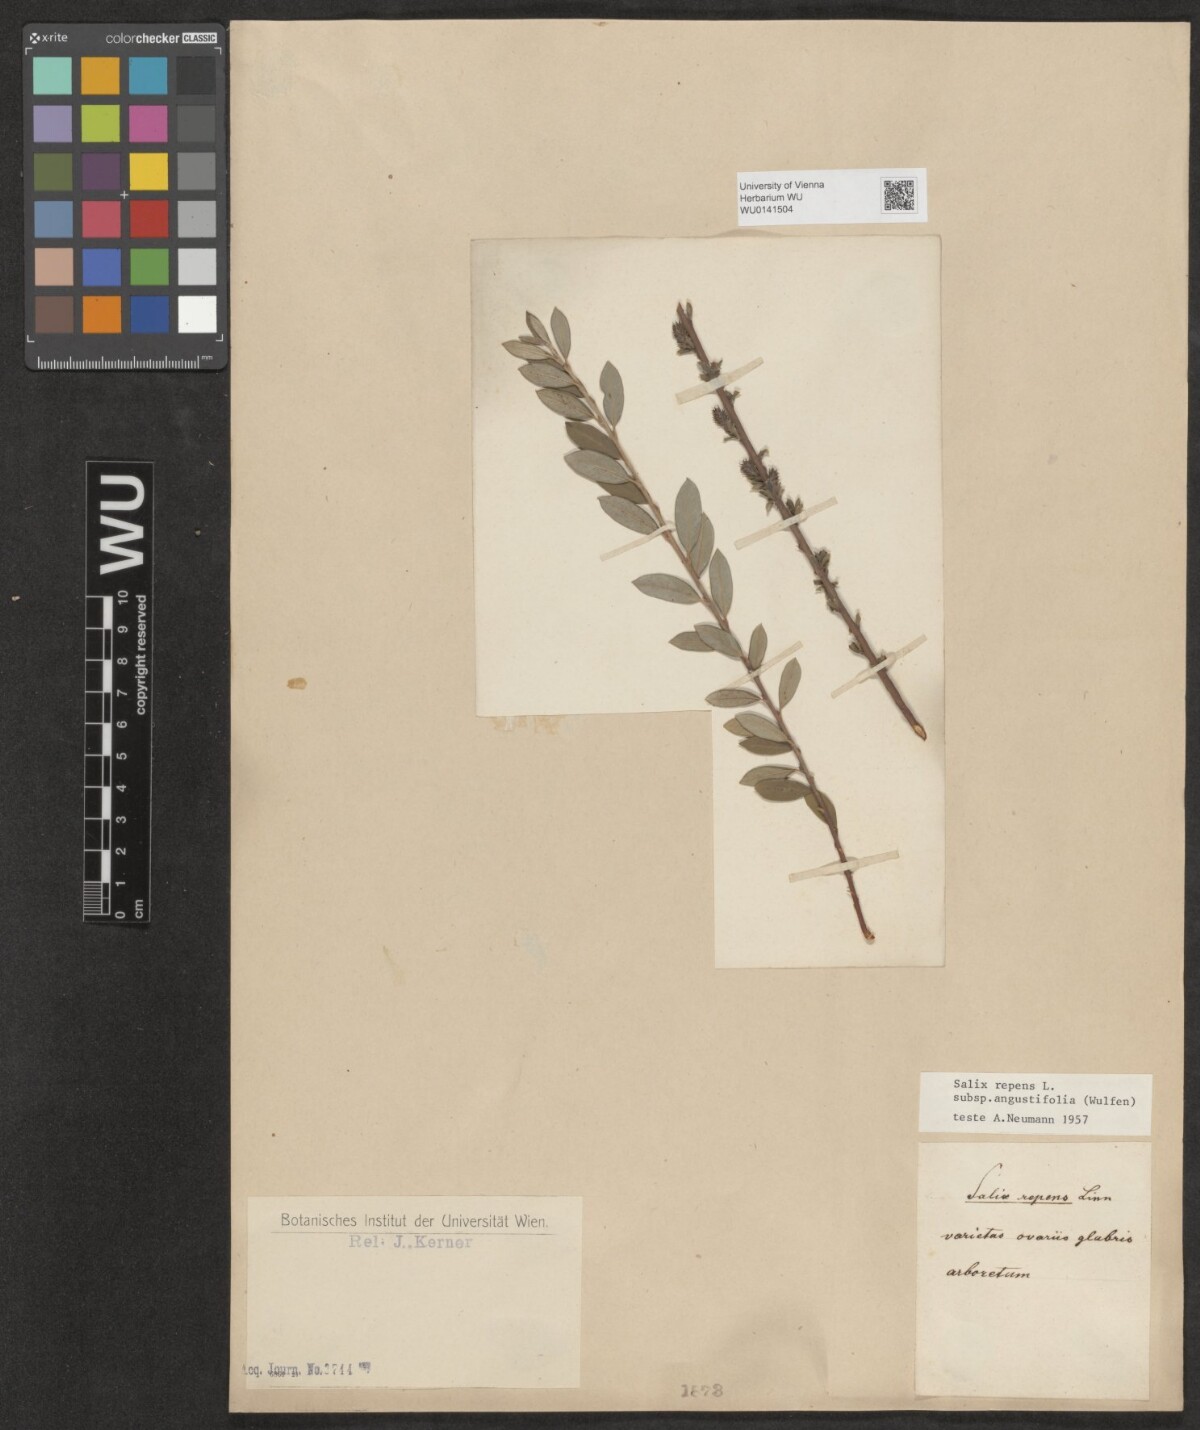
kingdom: Plantae
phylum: Tracheophyta
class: Magnoliopsida
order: Malpighiales
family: Salicaceae
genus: Salix
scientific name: Salix rosmarinifolia
